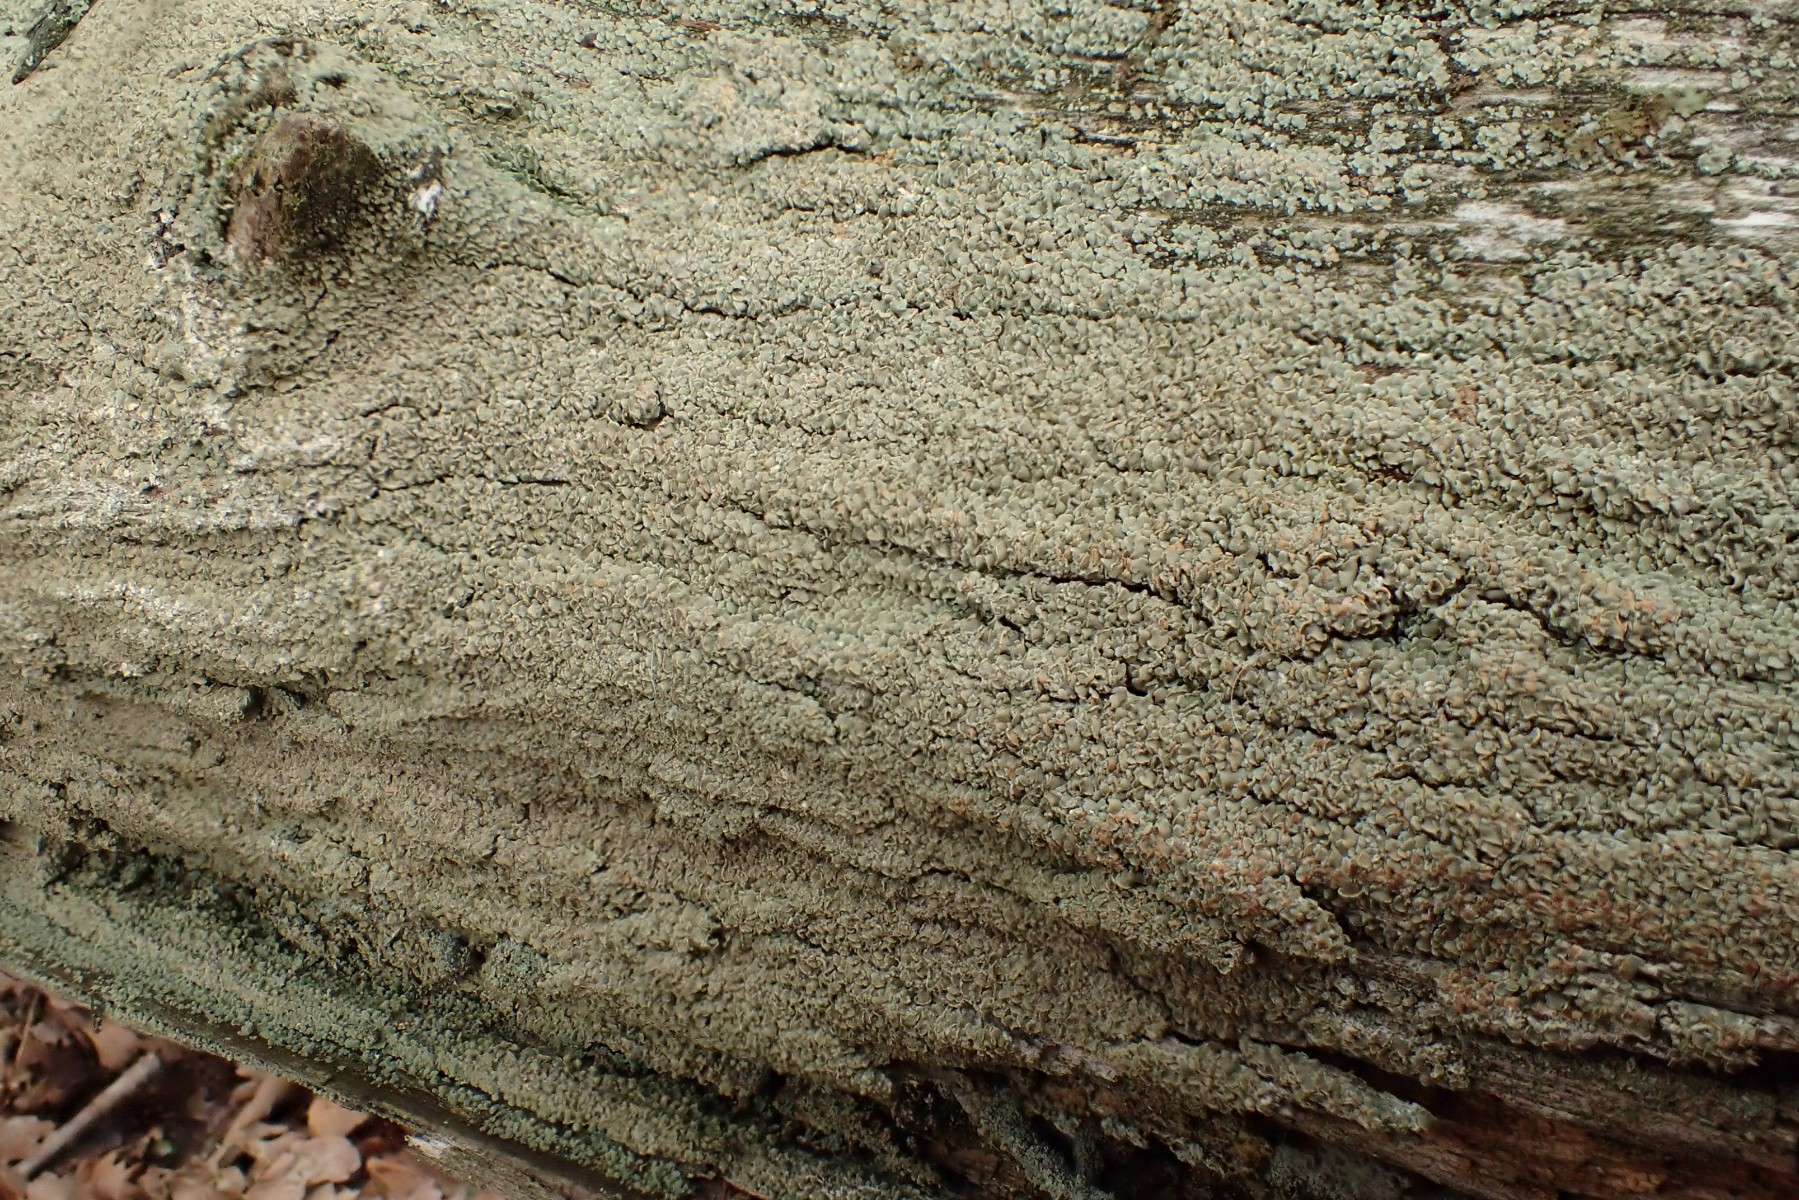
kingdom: Fungi
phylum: Ascomycota
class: Lecanoromycetes
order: Umbilicariales
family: Ophioparmaceae
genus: Hypocenomyce
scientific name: Hypocenomyce scalaris
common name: småskællet muslinglav
